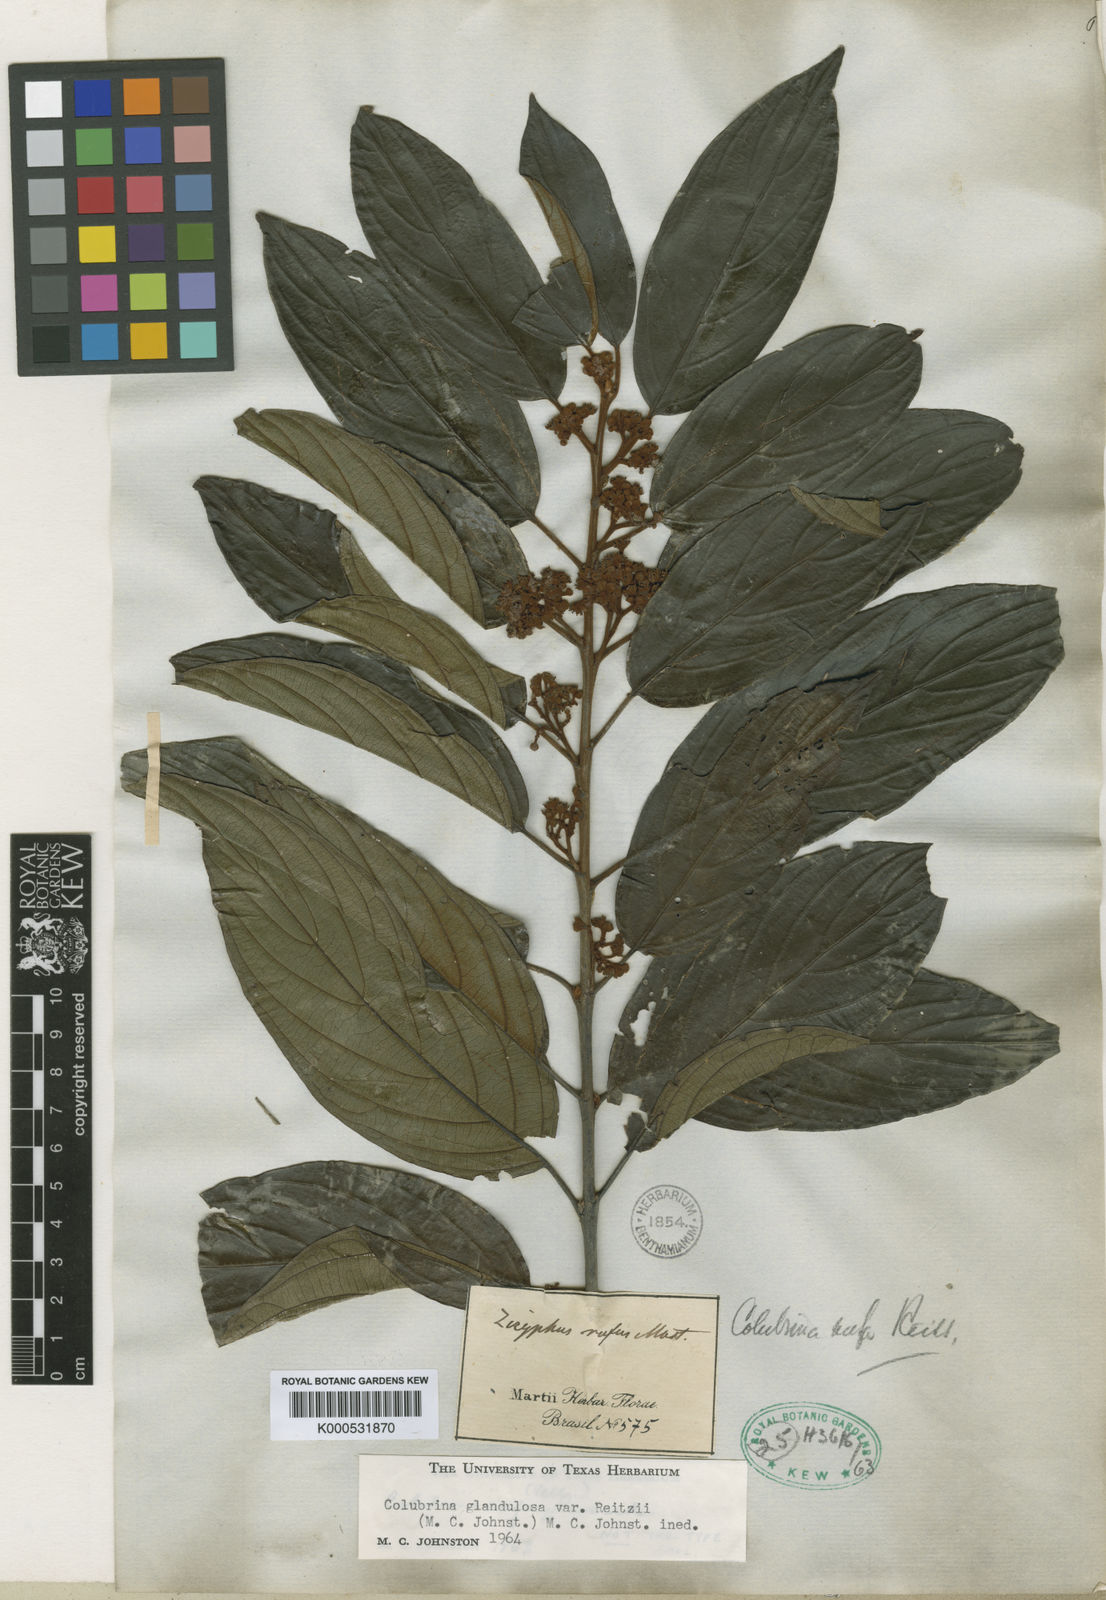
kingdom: Plantae
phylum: Tracheophyta
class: Magnoliopsida
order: Gentianales
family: Loganiaceae
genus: Strychnos
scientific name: Strychnos parvifolia
